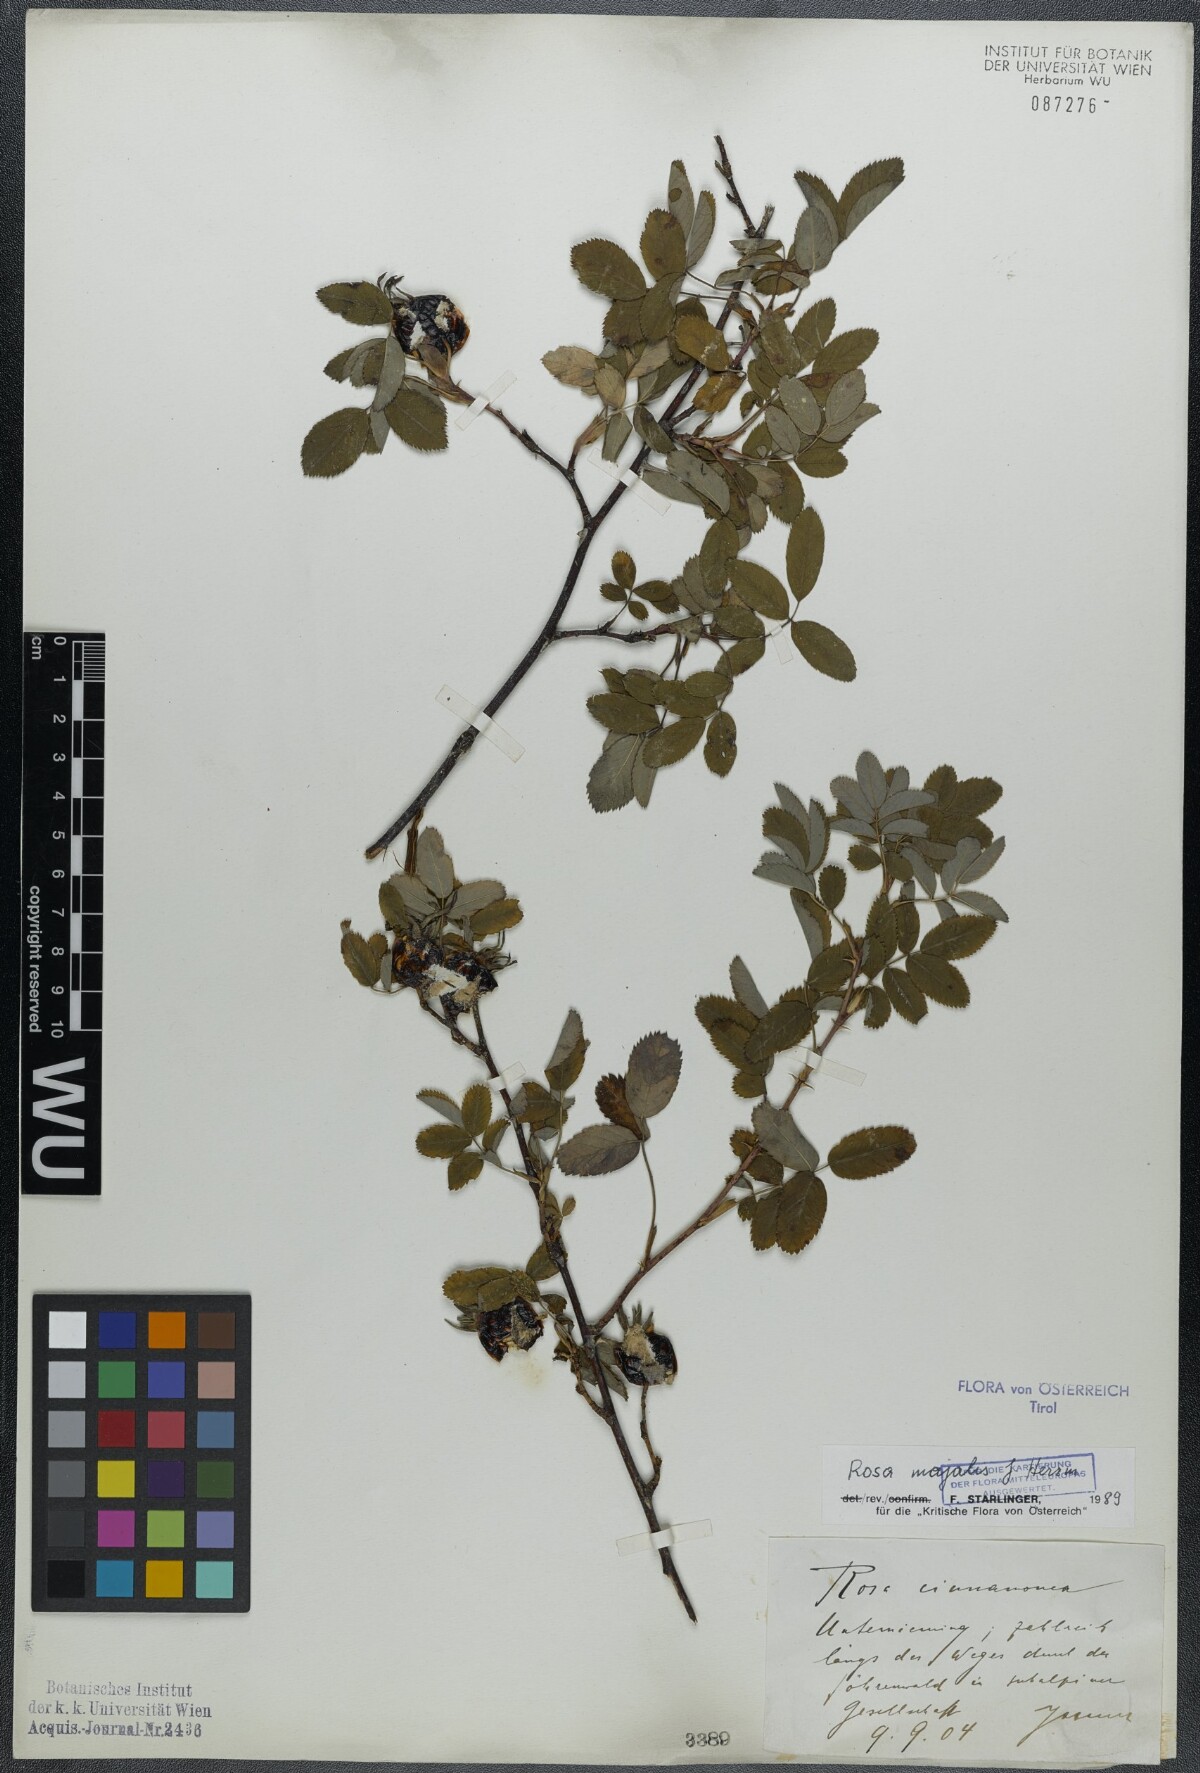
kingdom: Plantae
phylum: Tracheophyta
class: Magnoliopsida
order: Rosales
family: Rosaceae
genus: Rosa
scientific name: Rosa majalis
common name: Cinnamon rose
